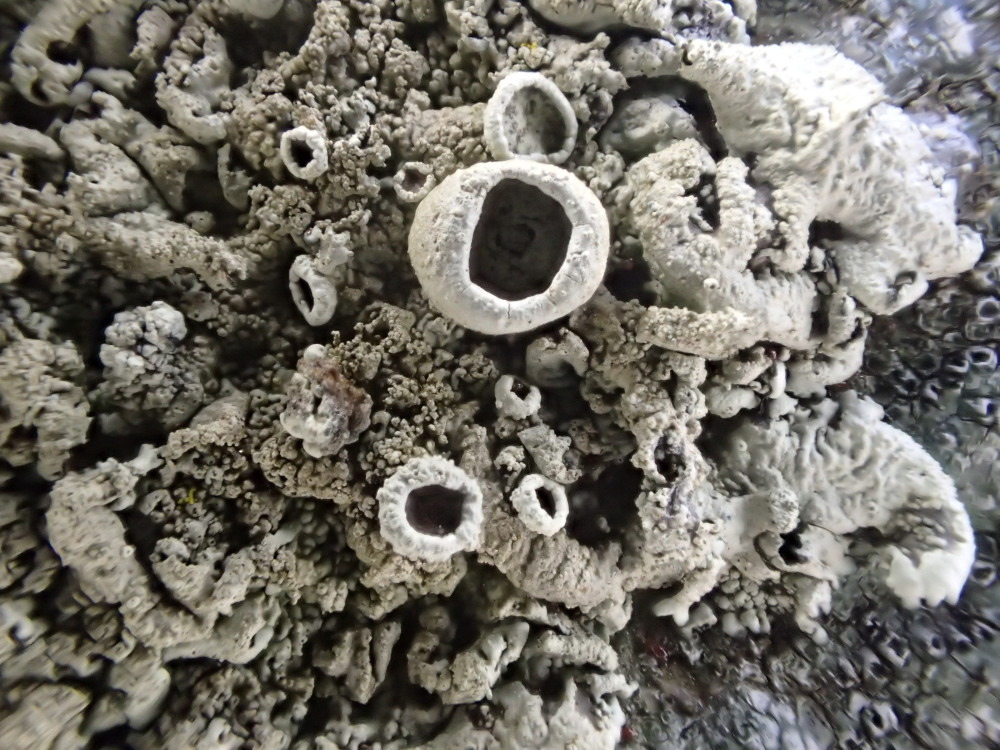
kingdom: Fungi
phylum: Ascomycota
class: Lecanoromycetes
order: Lecanorales
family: Parmeliaceae
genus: Xanthoparmelia
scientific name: Xanthoparmelia conspersa
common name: messing-skållav
